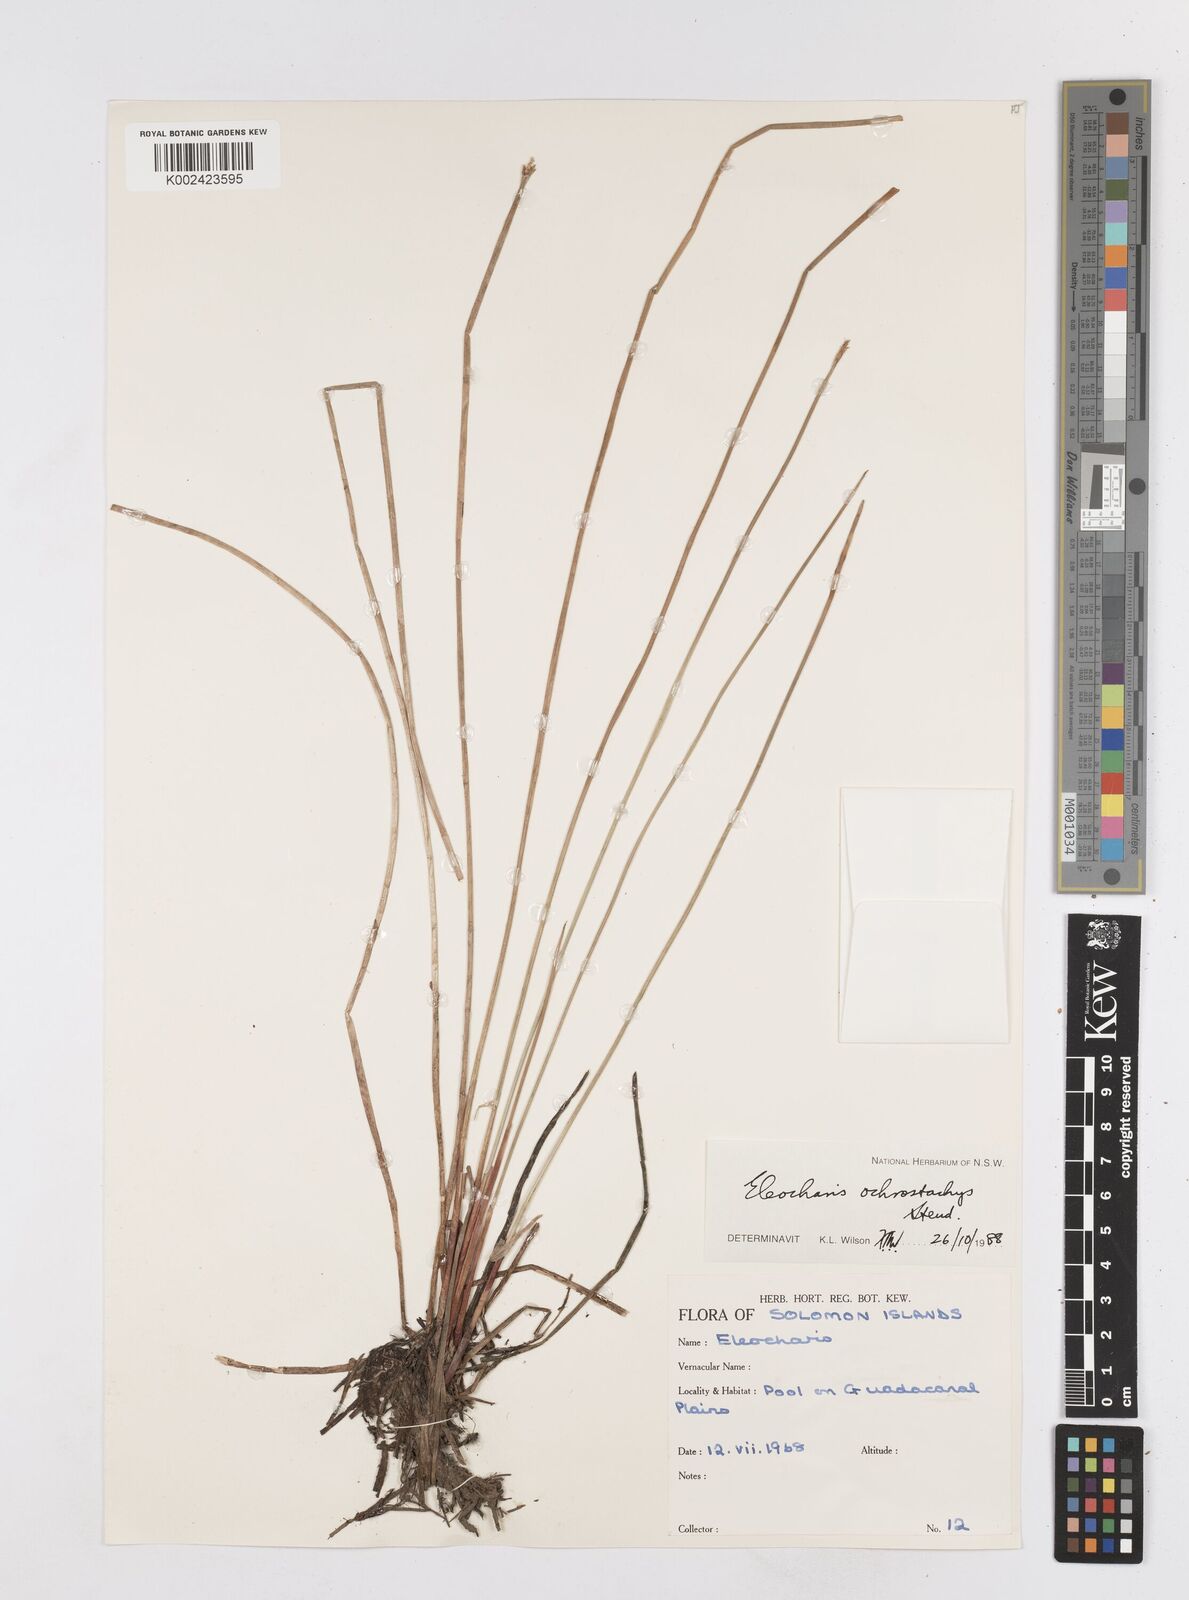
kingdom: Plantae
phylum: Tracheophyta
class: Liliopsida
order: Poales
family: Cyperaceae
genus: Eleocharis
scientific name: Eleocharis ochrostachys
